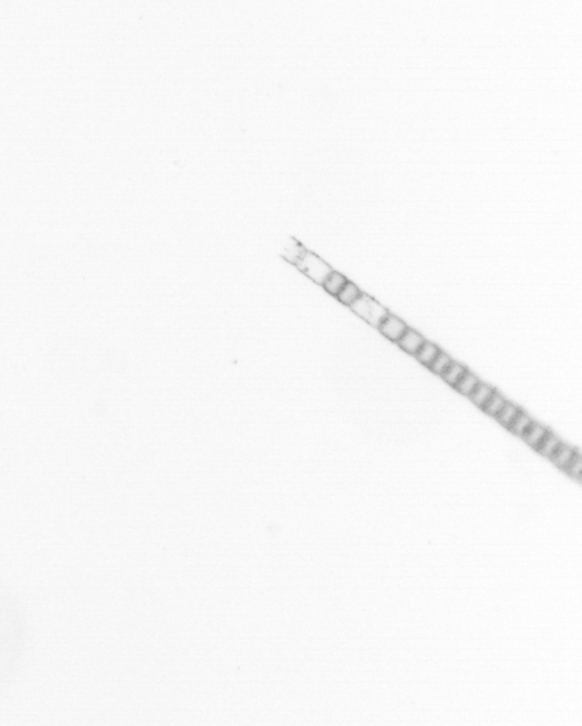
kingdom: Chromista
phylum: Ochrophyta
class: Bacillariophyceae
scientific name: Bacillariophyceae
